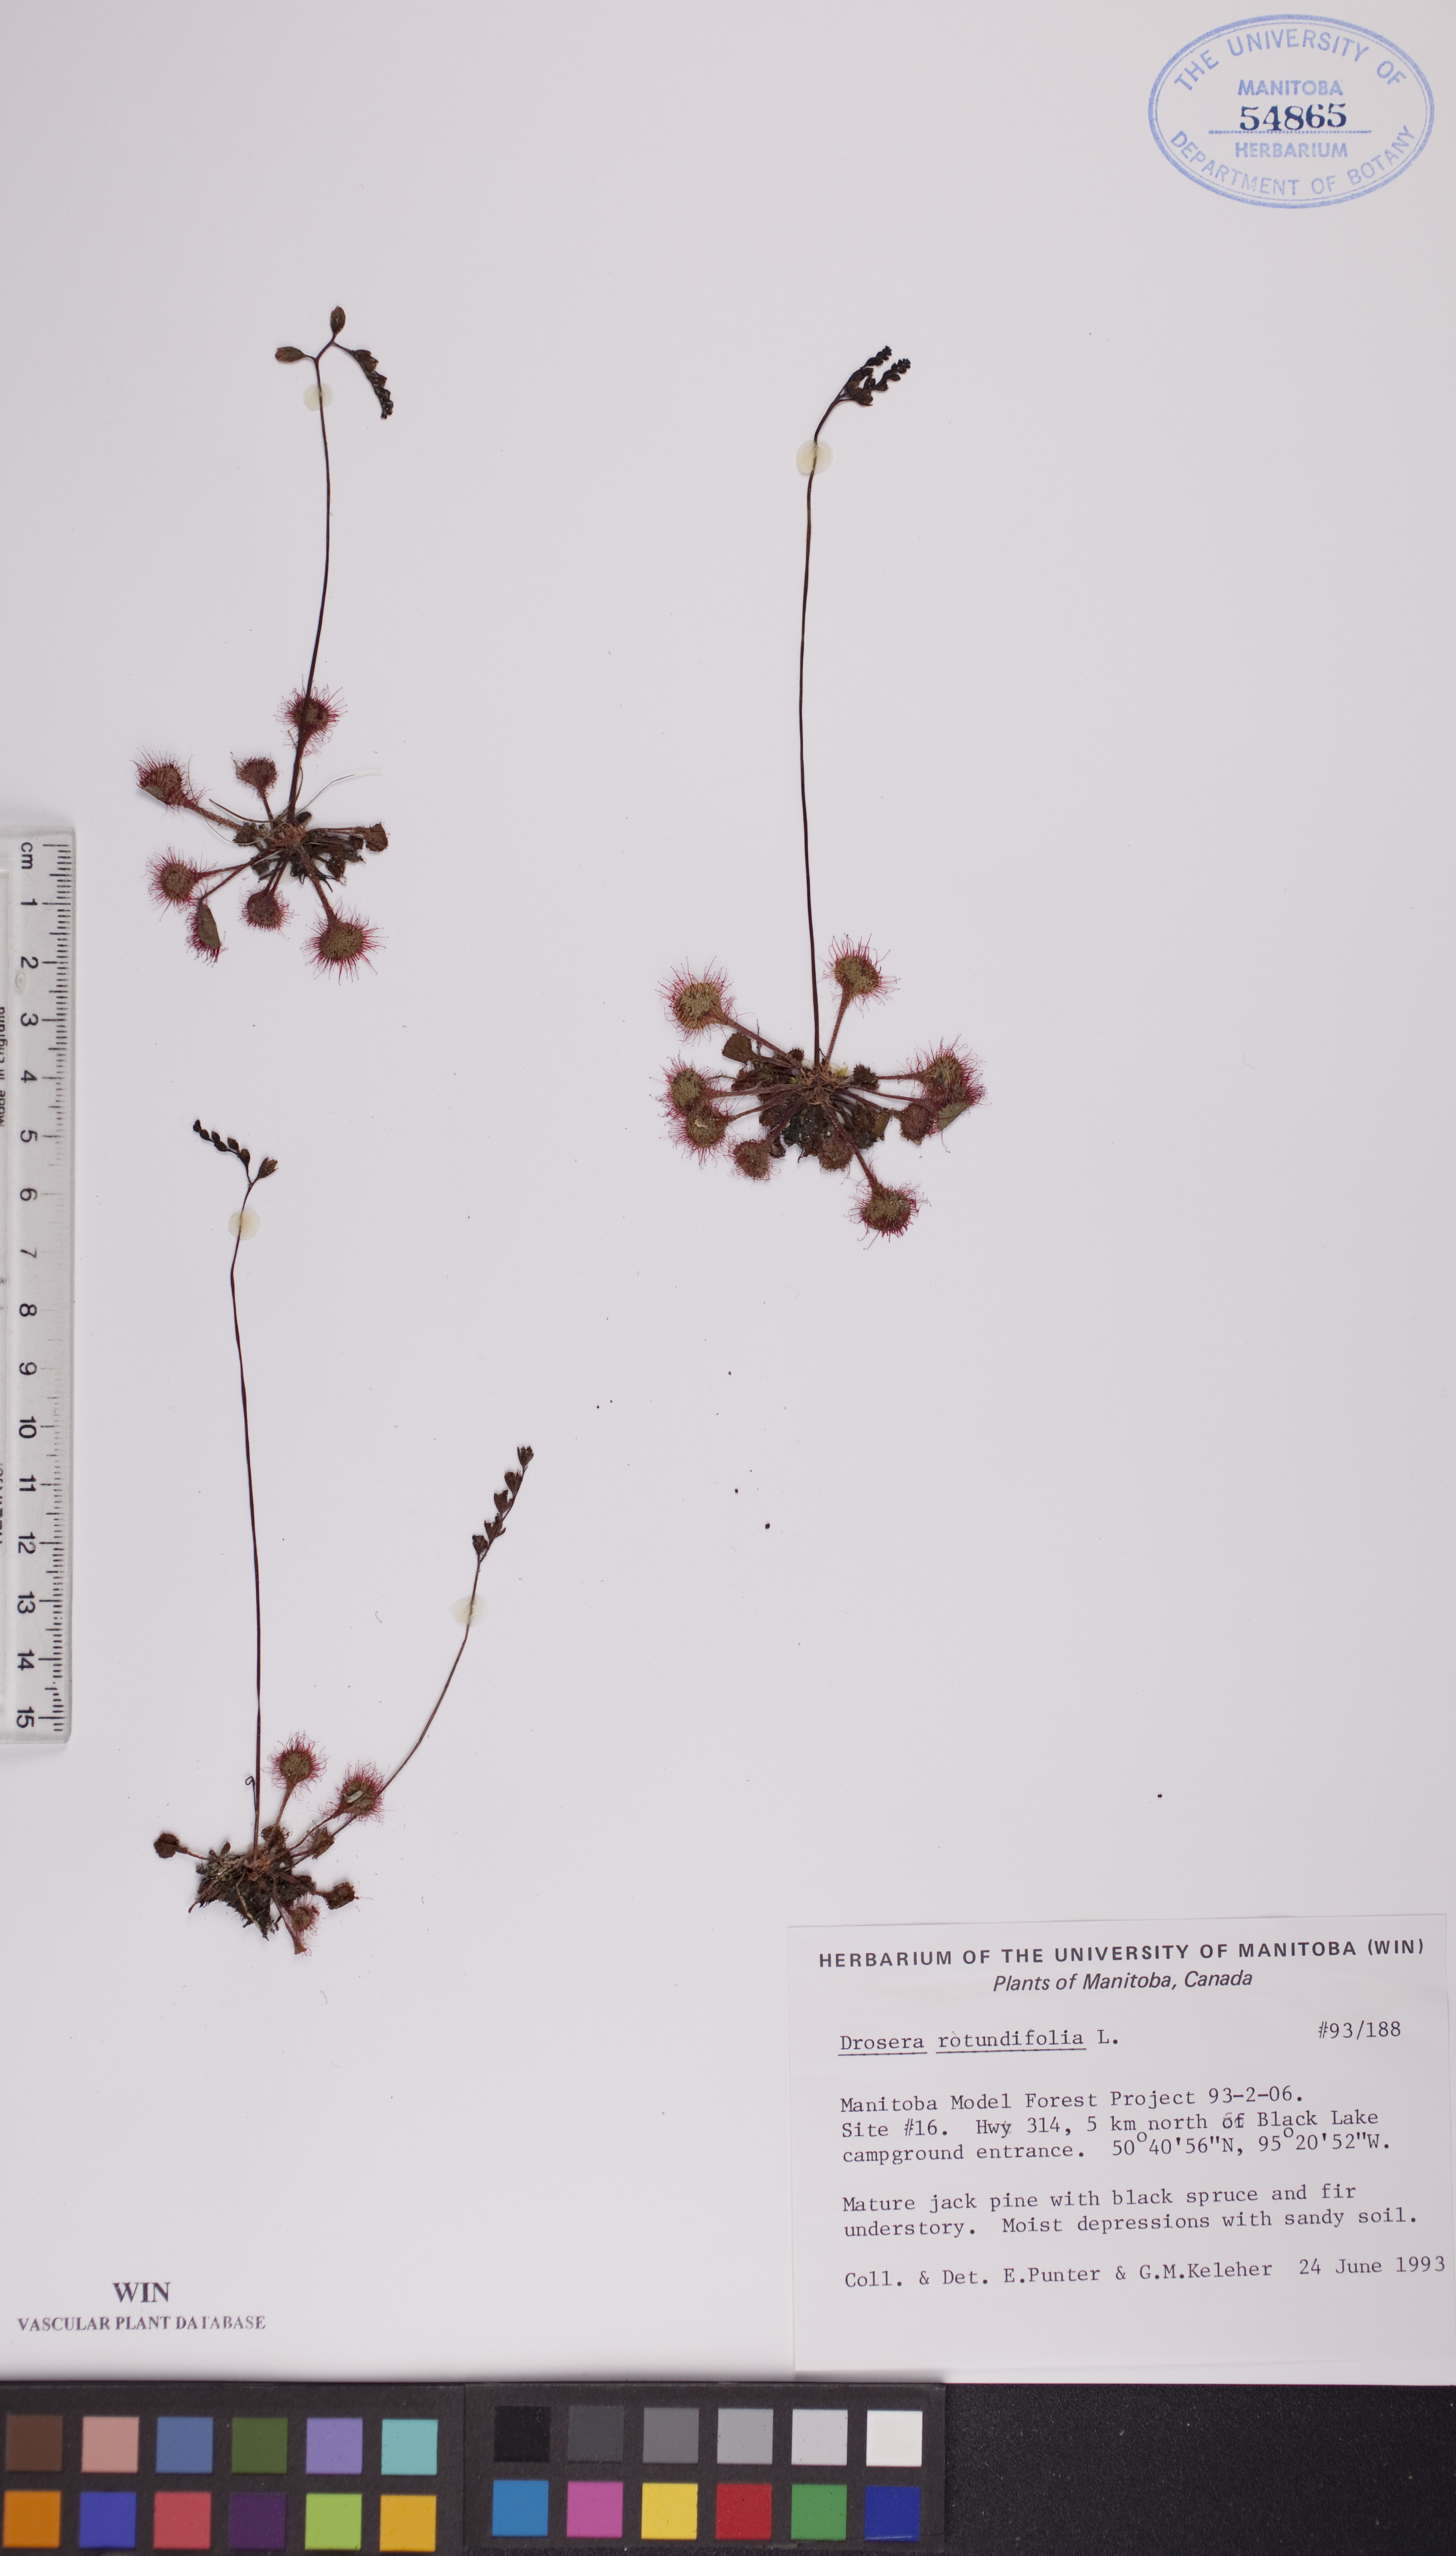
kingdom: Plantae
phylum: Tracheophyta
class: Magnoliopsida
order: Caryophyllales
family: Droseraceae
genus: Drosera
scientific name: Drosera rotundifolia
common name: Round-leaved sundew
